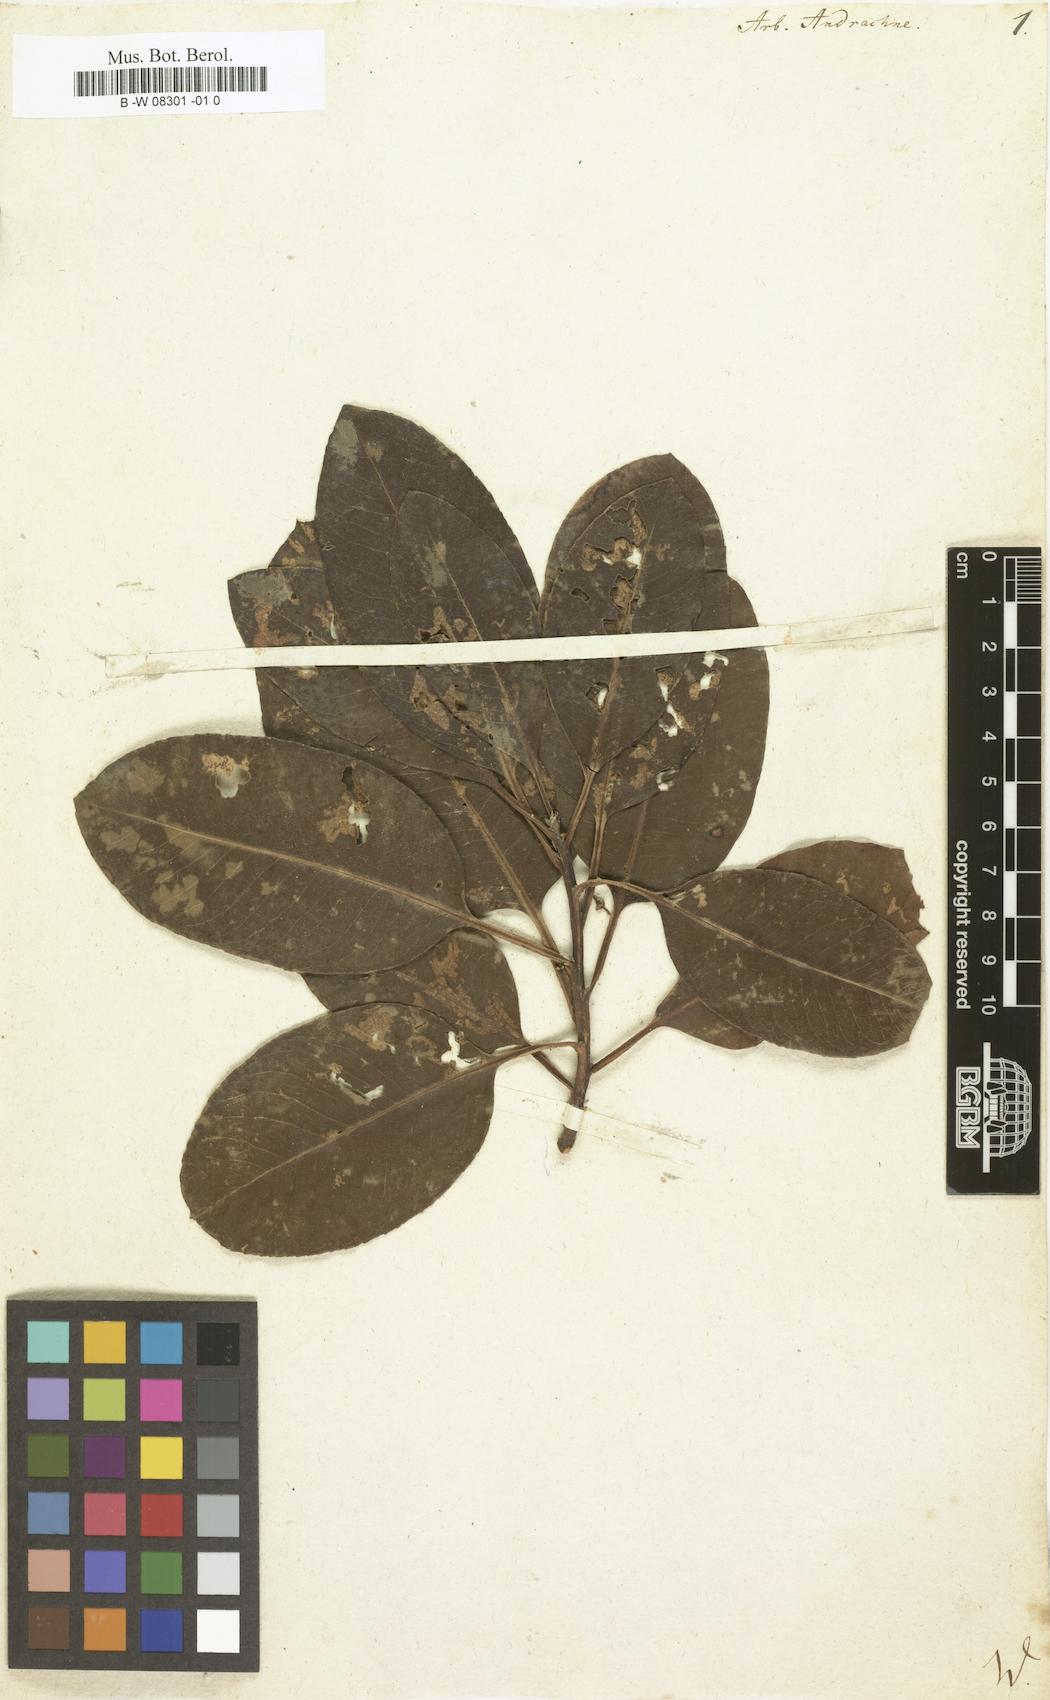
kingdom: Plantae
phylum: Tracheophyta
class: Magnoliopsida
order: Ericales
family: Ericaceae
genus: Arbutus
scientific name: Arbutus andrachne
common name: Greek strawberry tree
